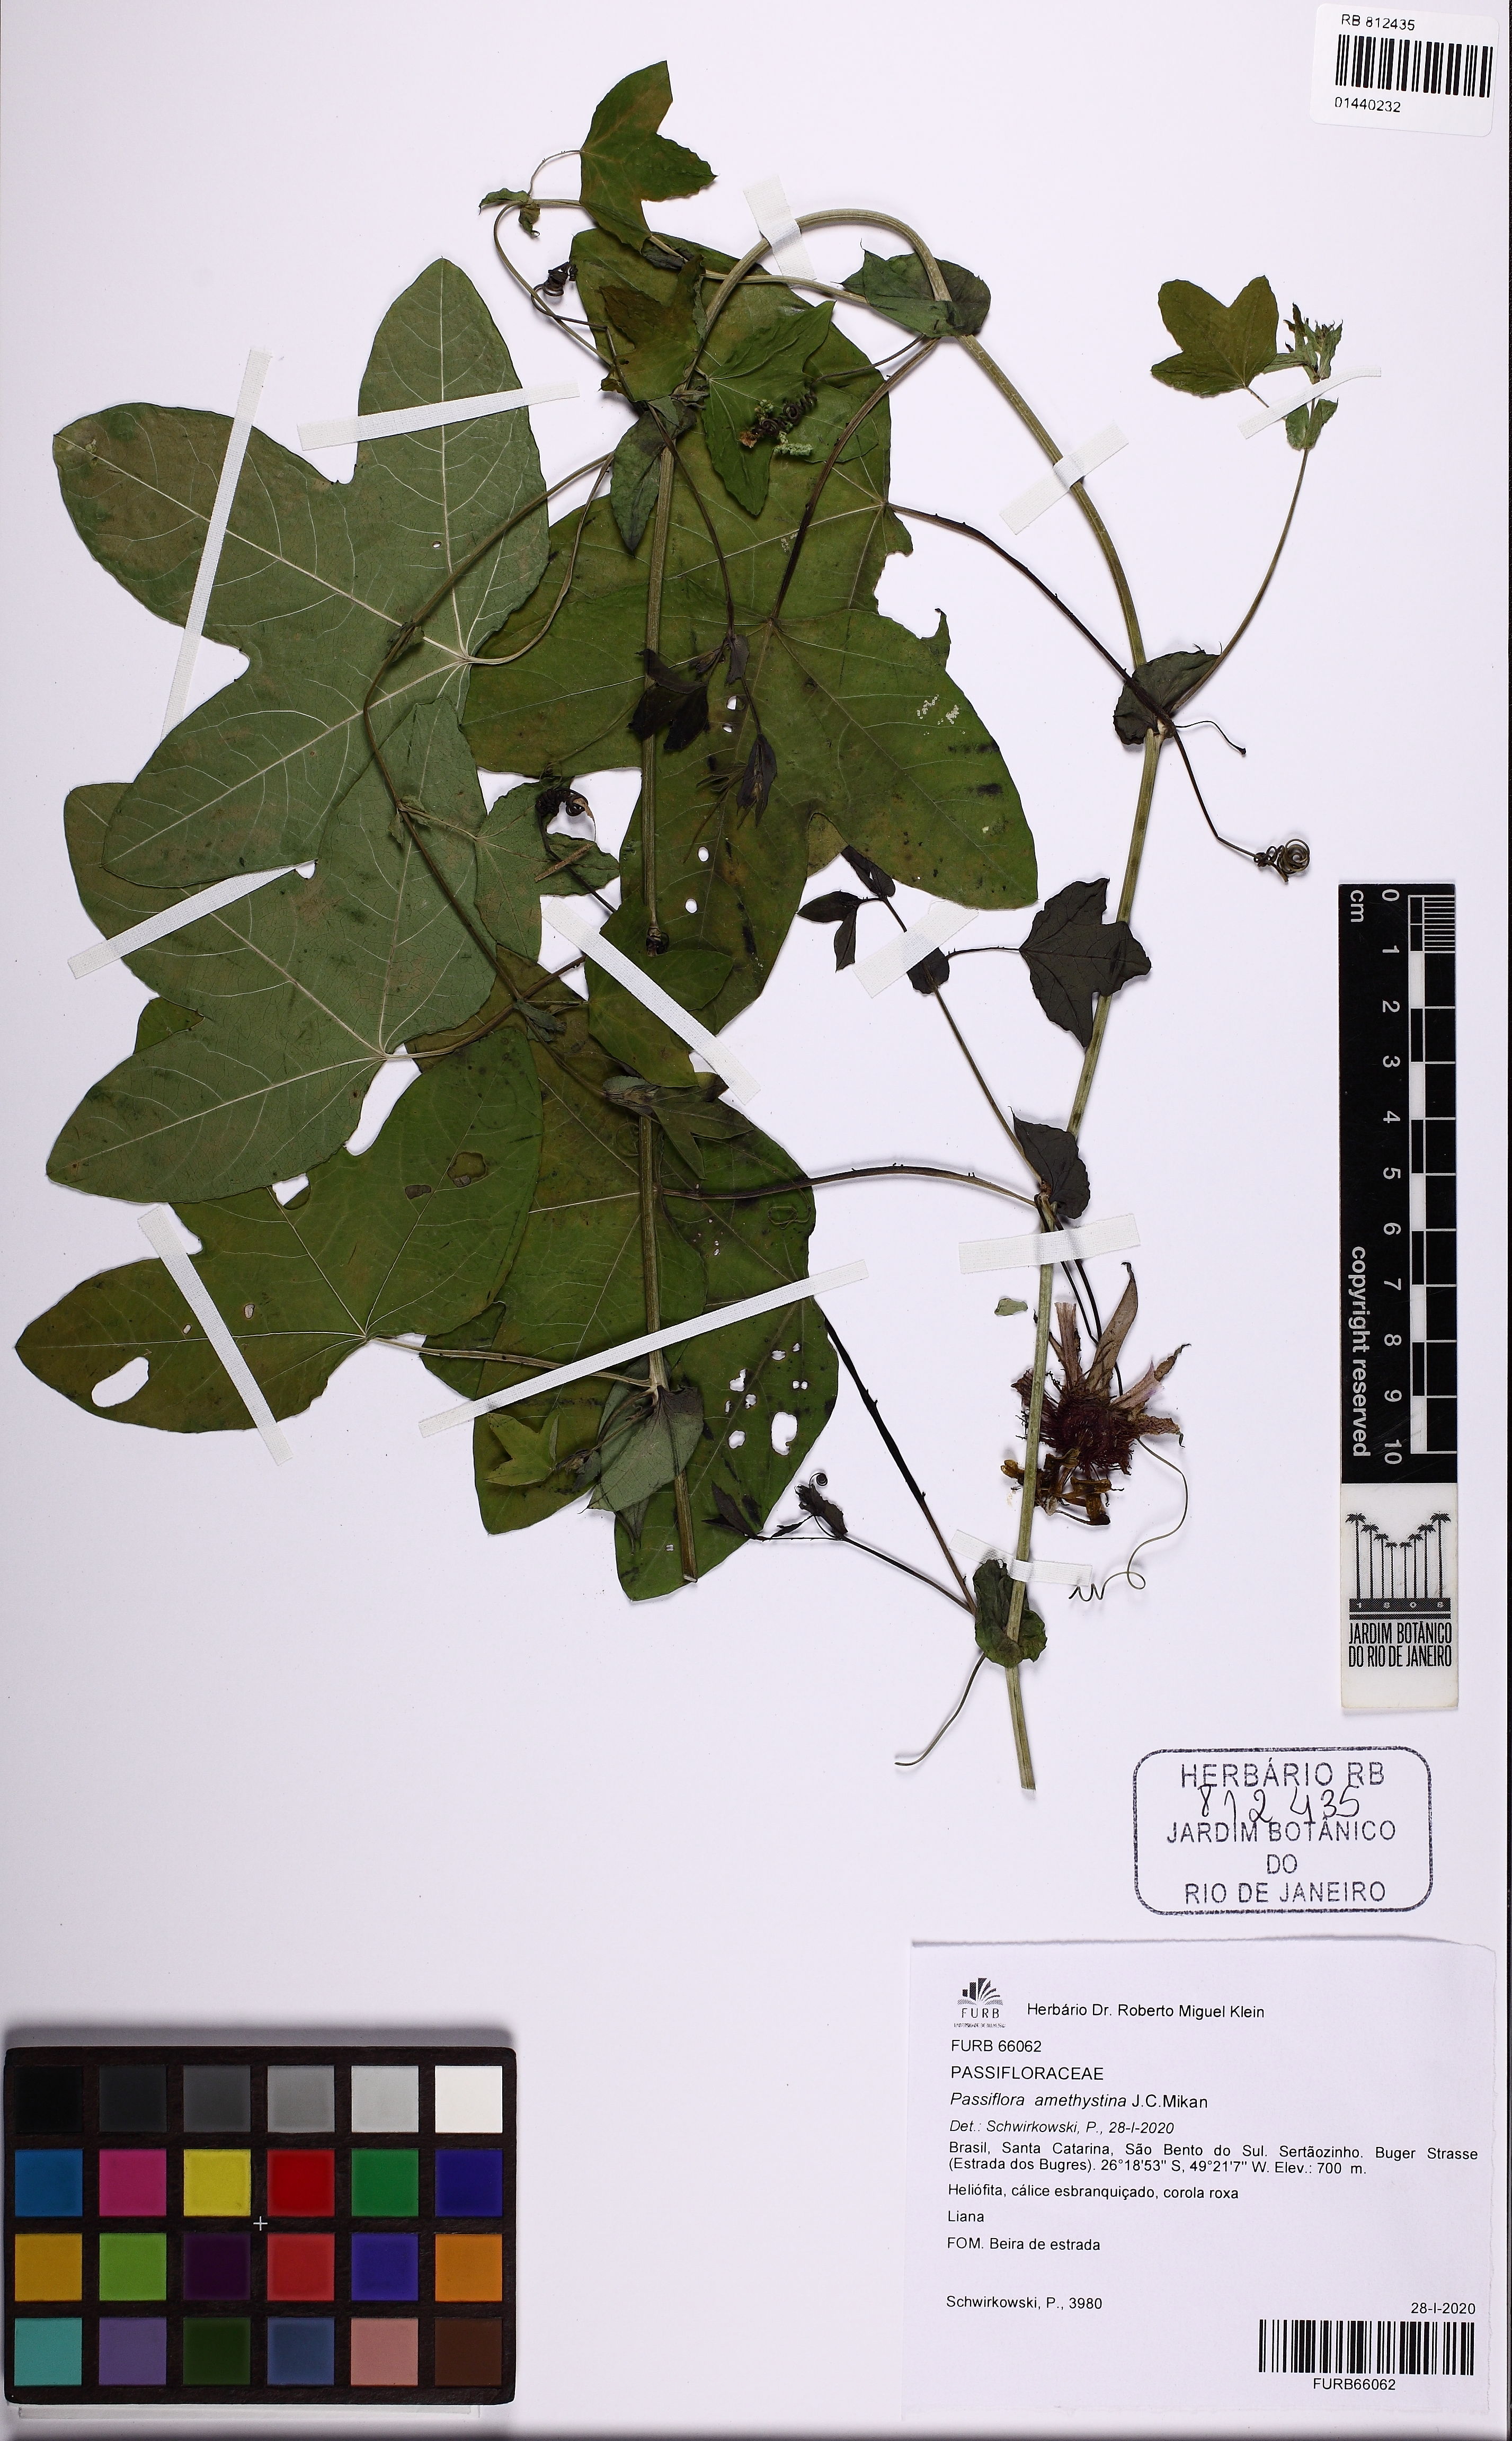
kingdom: Plantae
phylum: Tracheophyta
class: Magnoliopsida
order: Malpighiales
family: Passifloraceae
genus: Passiflora
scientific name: Passiflora amethystina
